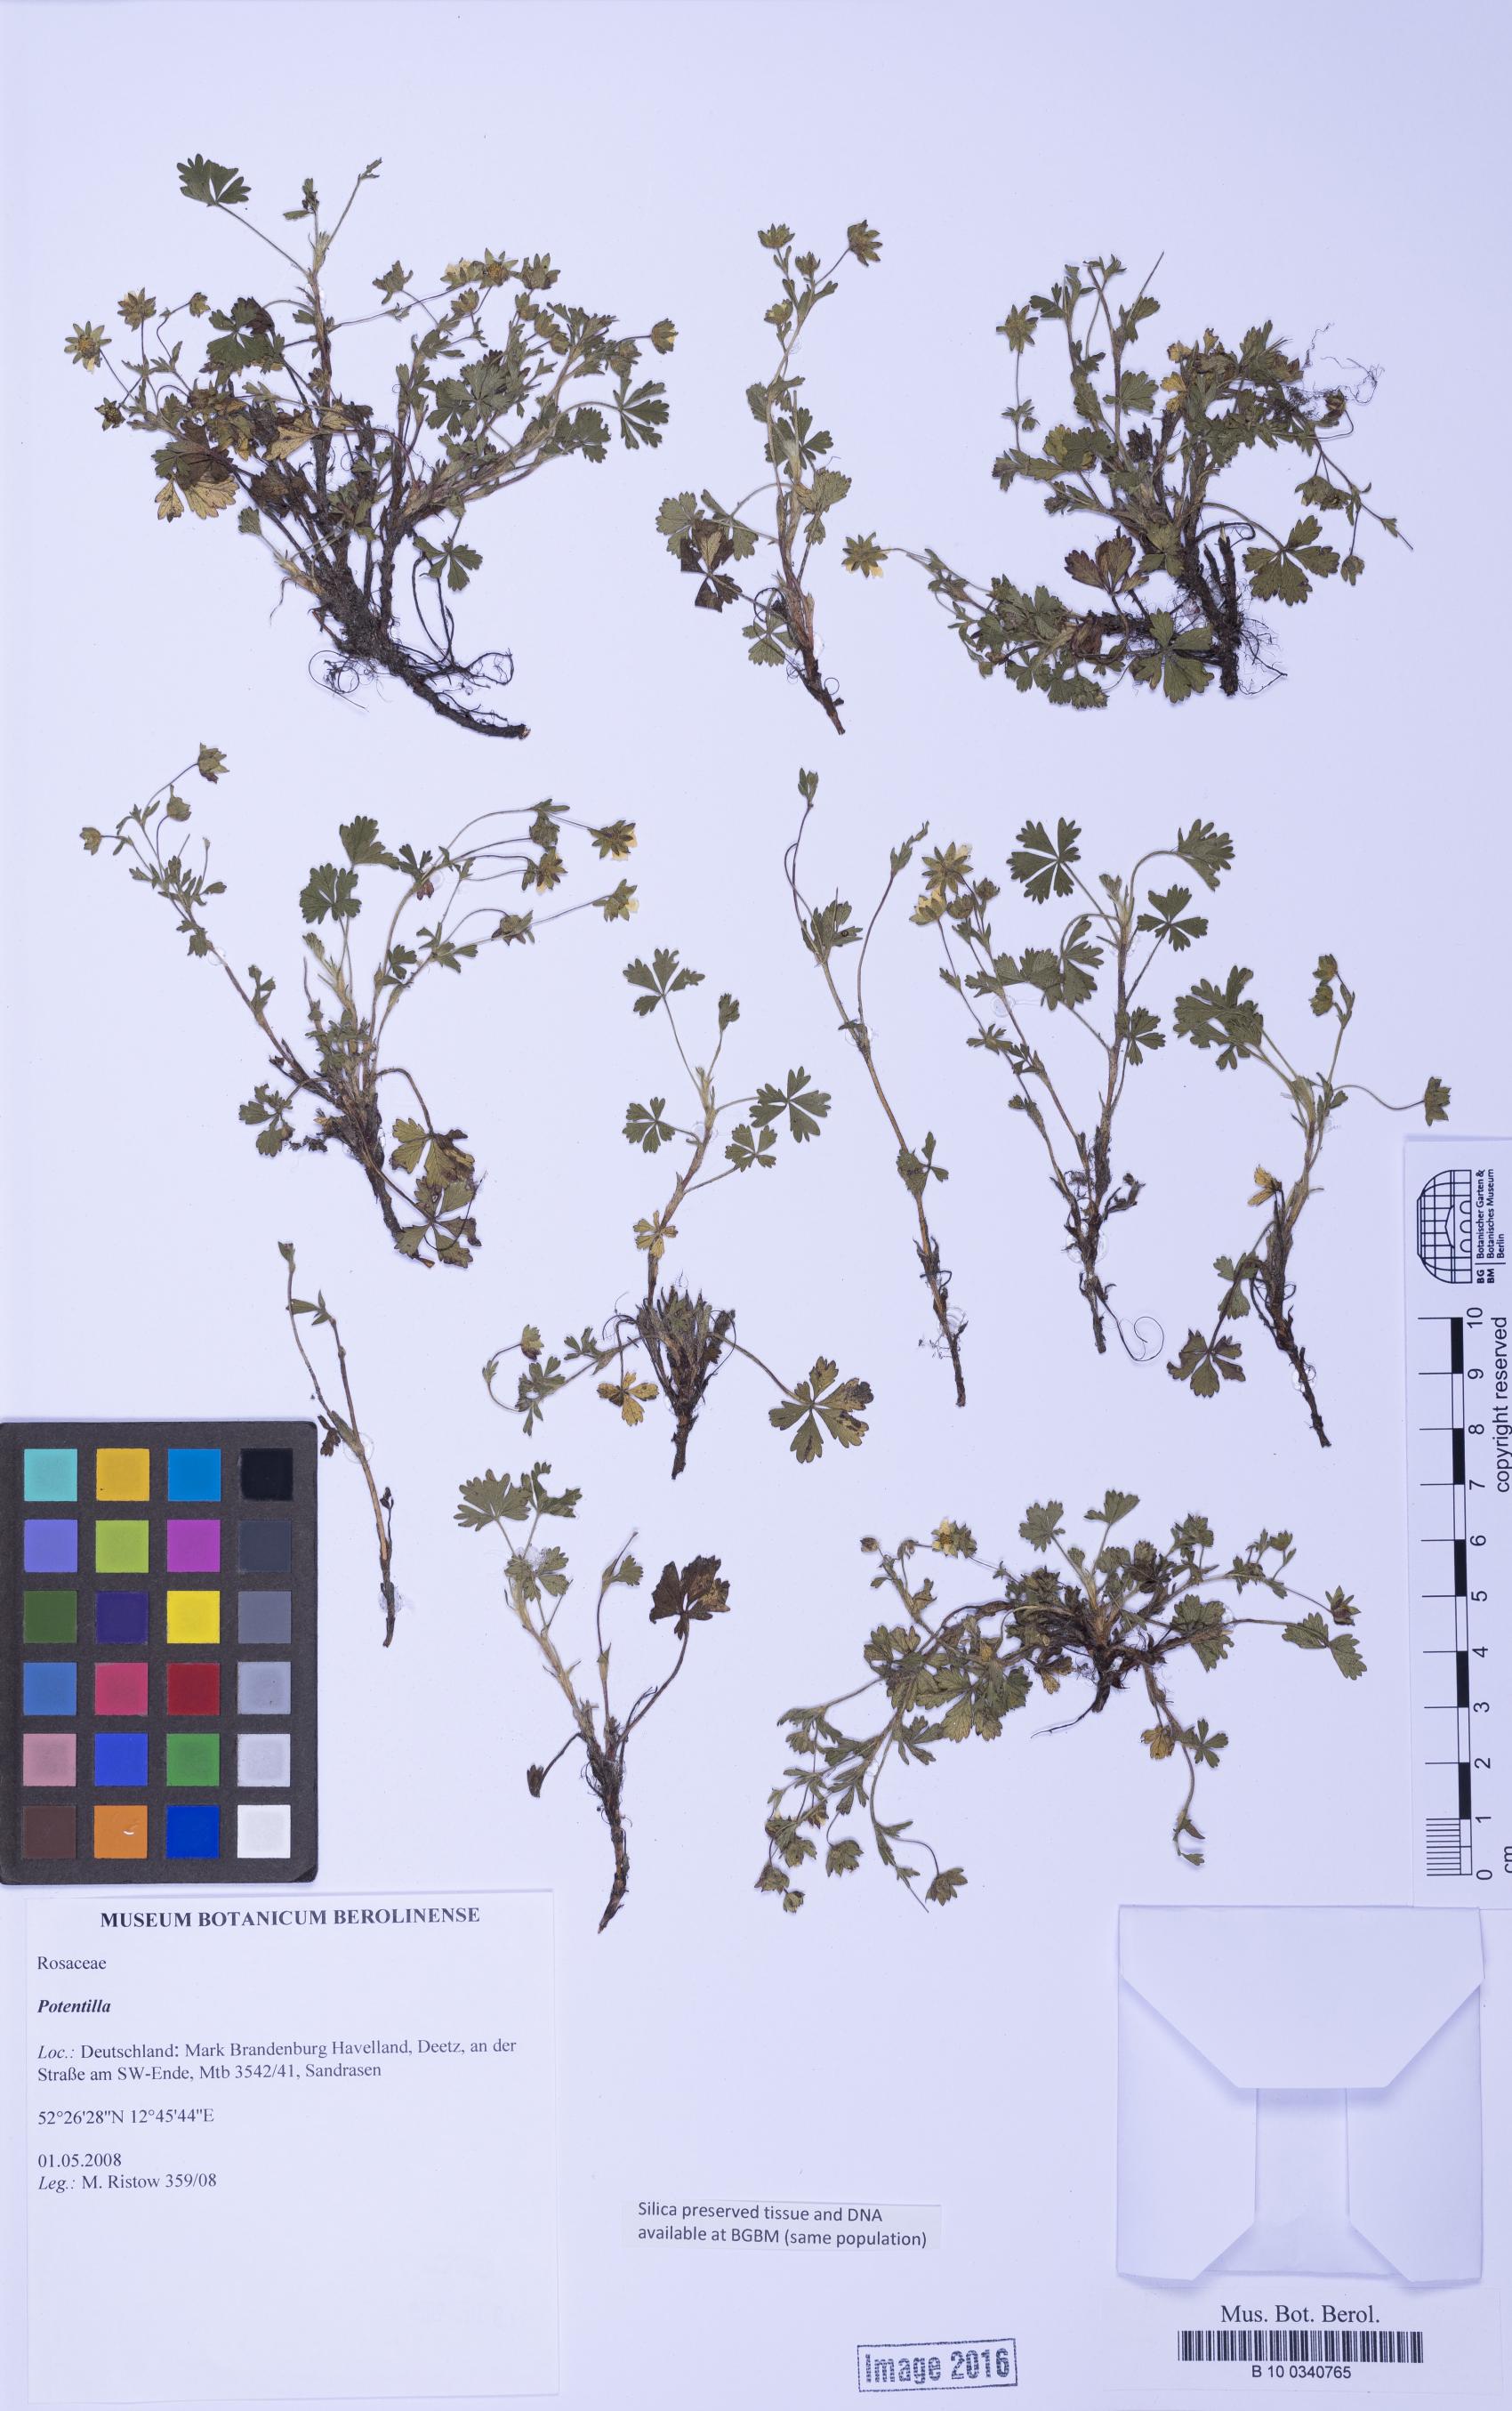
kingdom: Plantae
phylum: Tracheophyta
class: Magnoliopsida
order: Rosales
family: Rosaceae
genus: Potentilla
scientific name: Potentilla
